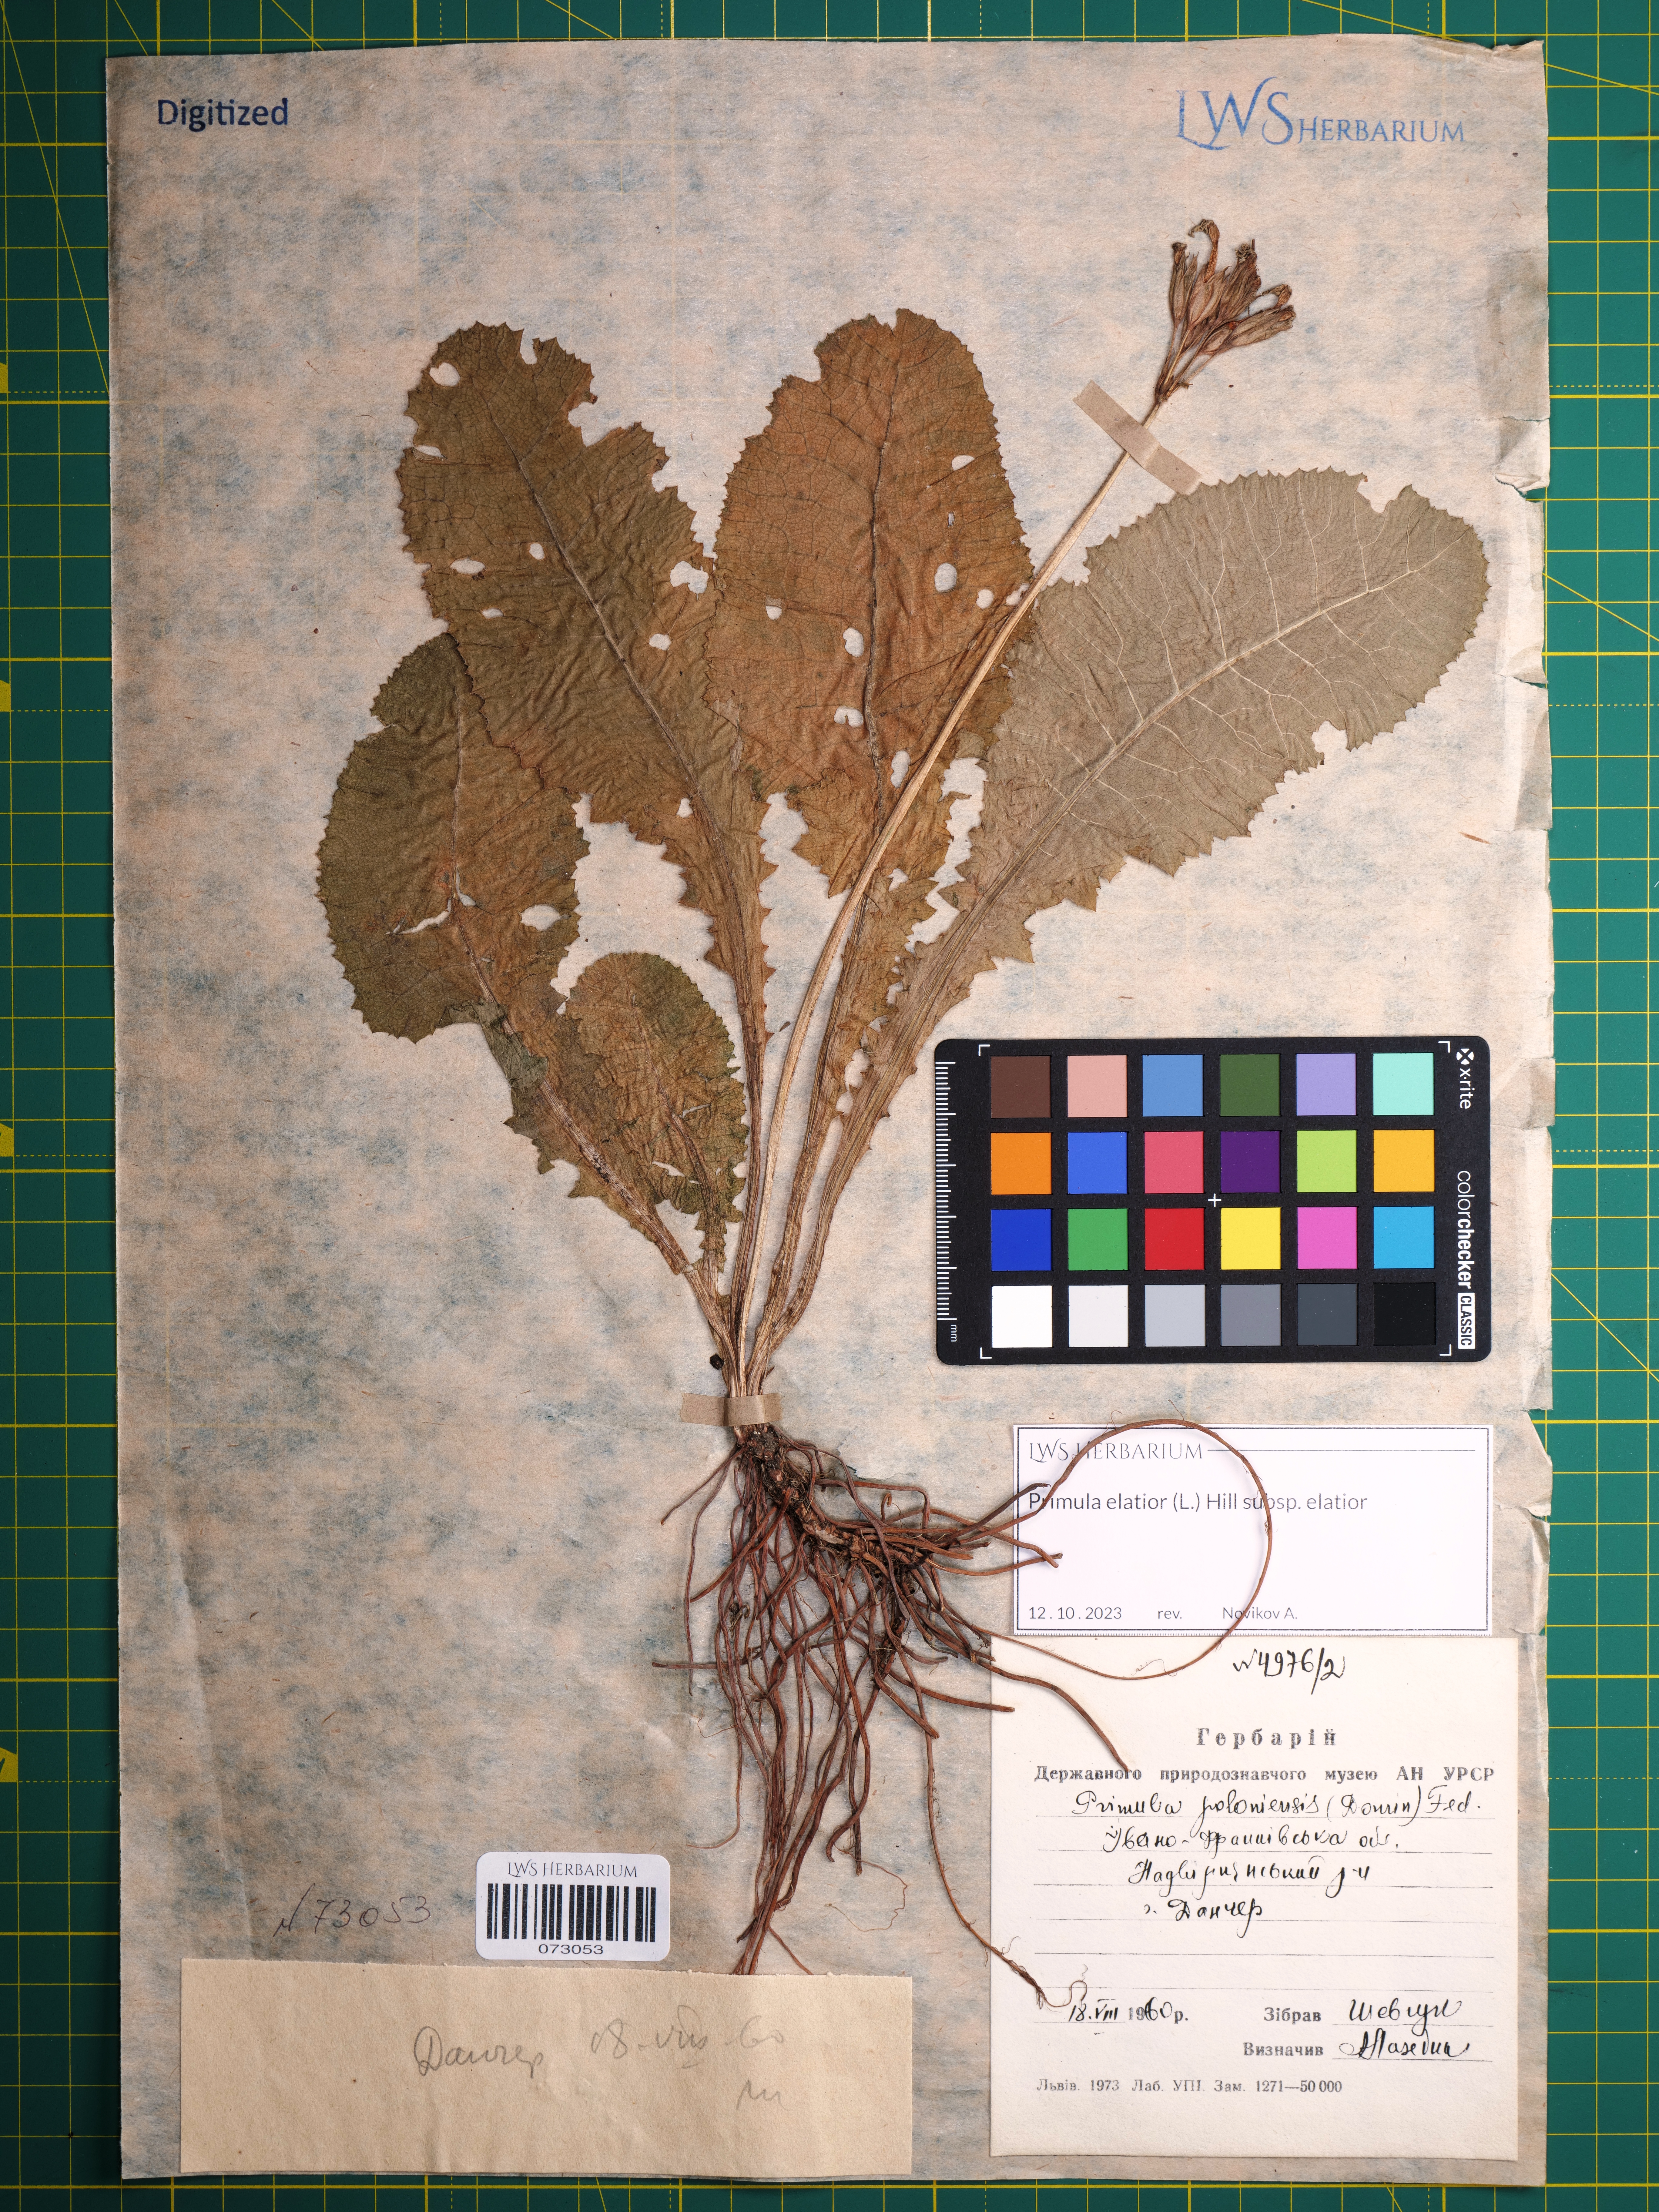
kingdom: Plantae
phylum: Tracheophyta
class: Magnoliopsida
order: Ericales
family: Primulaceae
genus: Primula
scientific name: Primula elatior
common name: Oxlip
